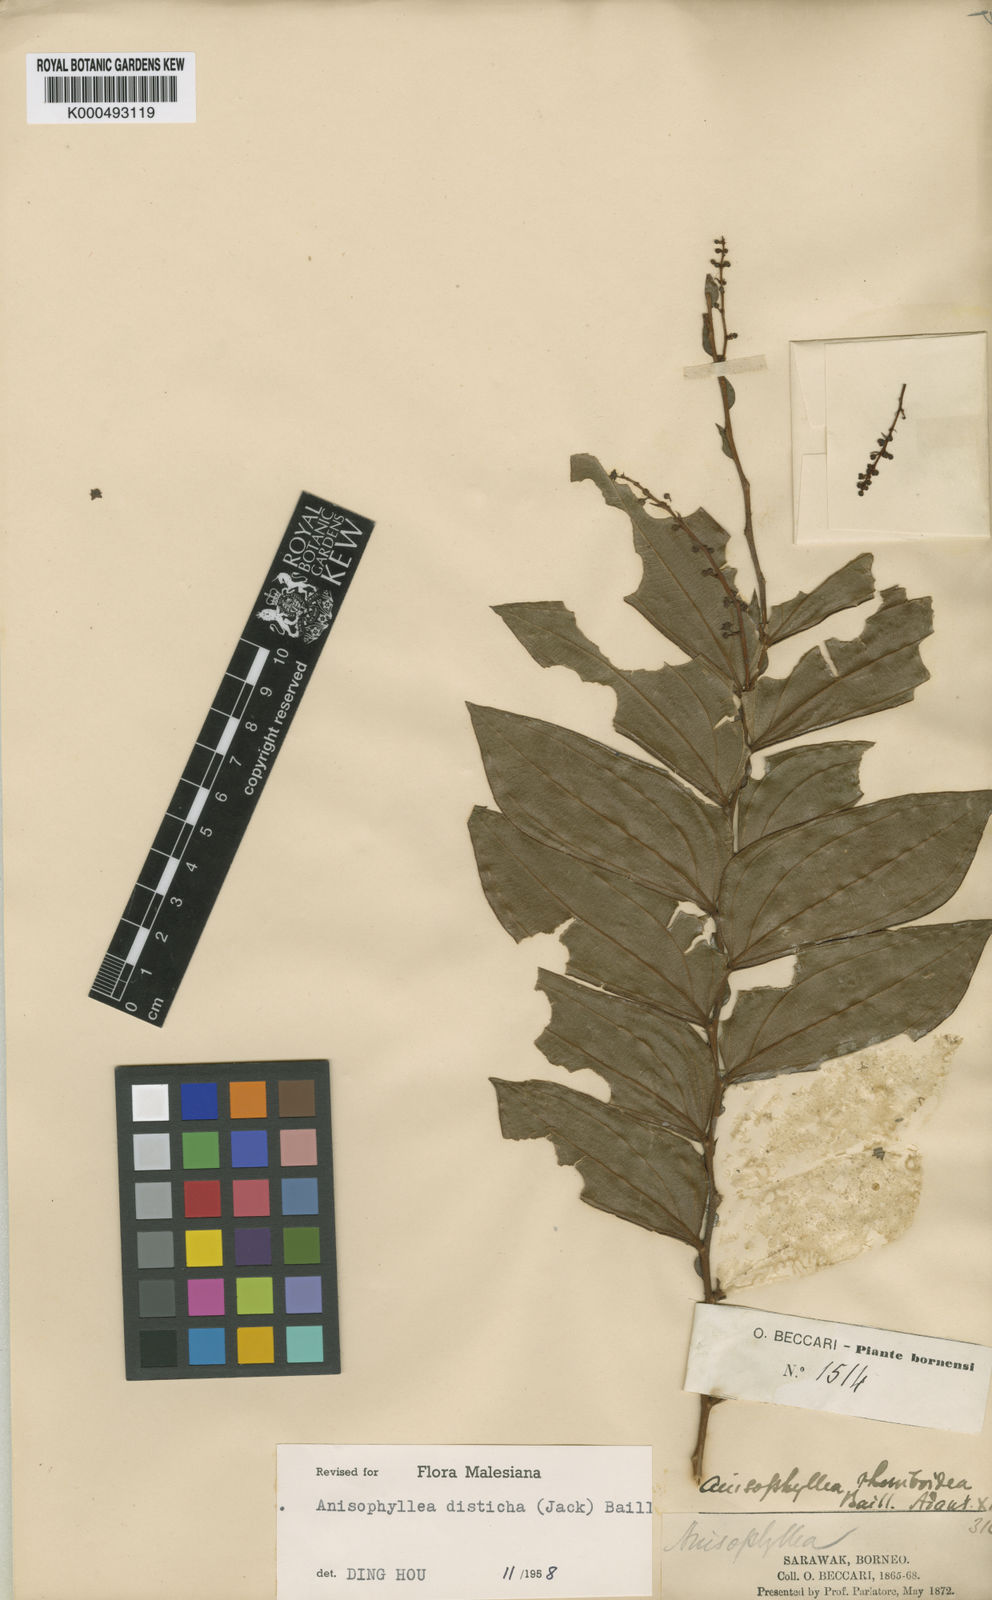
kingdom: Plantae
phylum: Tracheophyta
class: Magnoliopsida
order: Cucurbitales
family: Anisophylleaceae
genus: Anisophyllea
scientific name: Anisophyllea disticha
